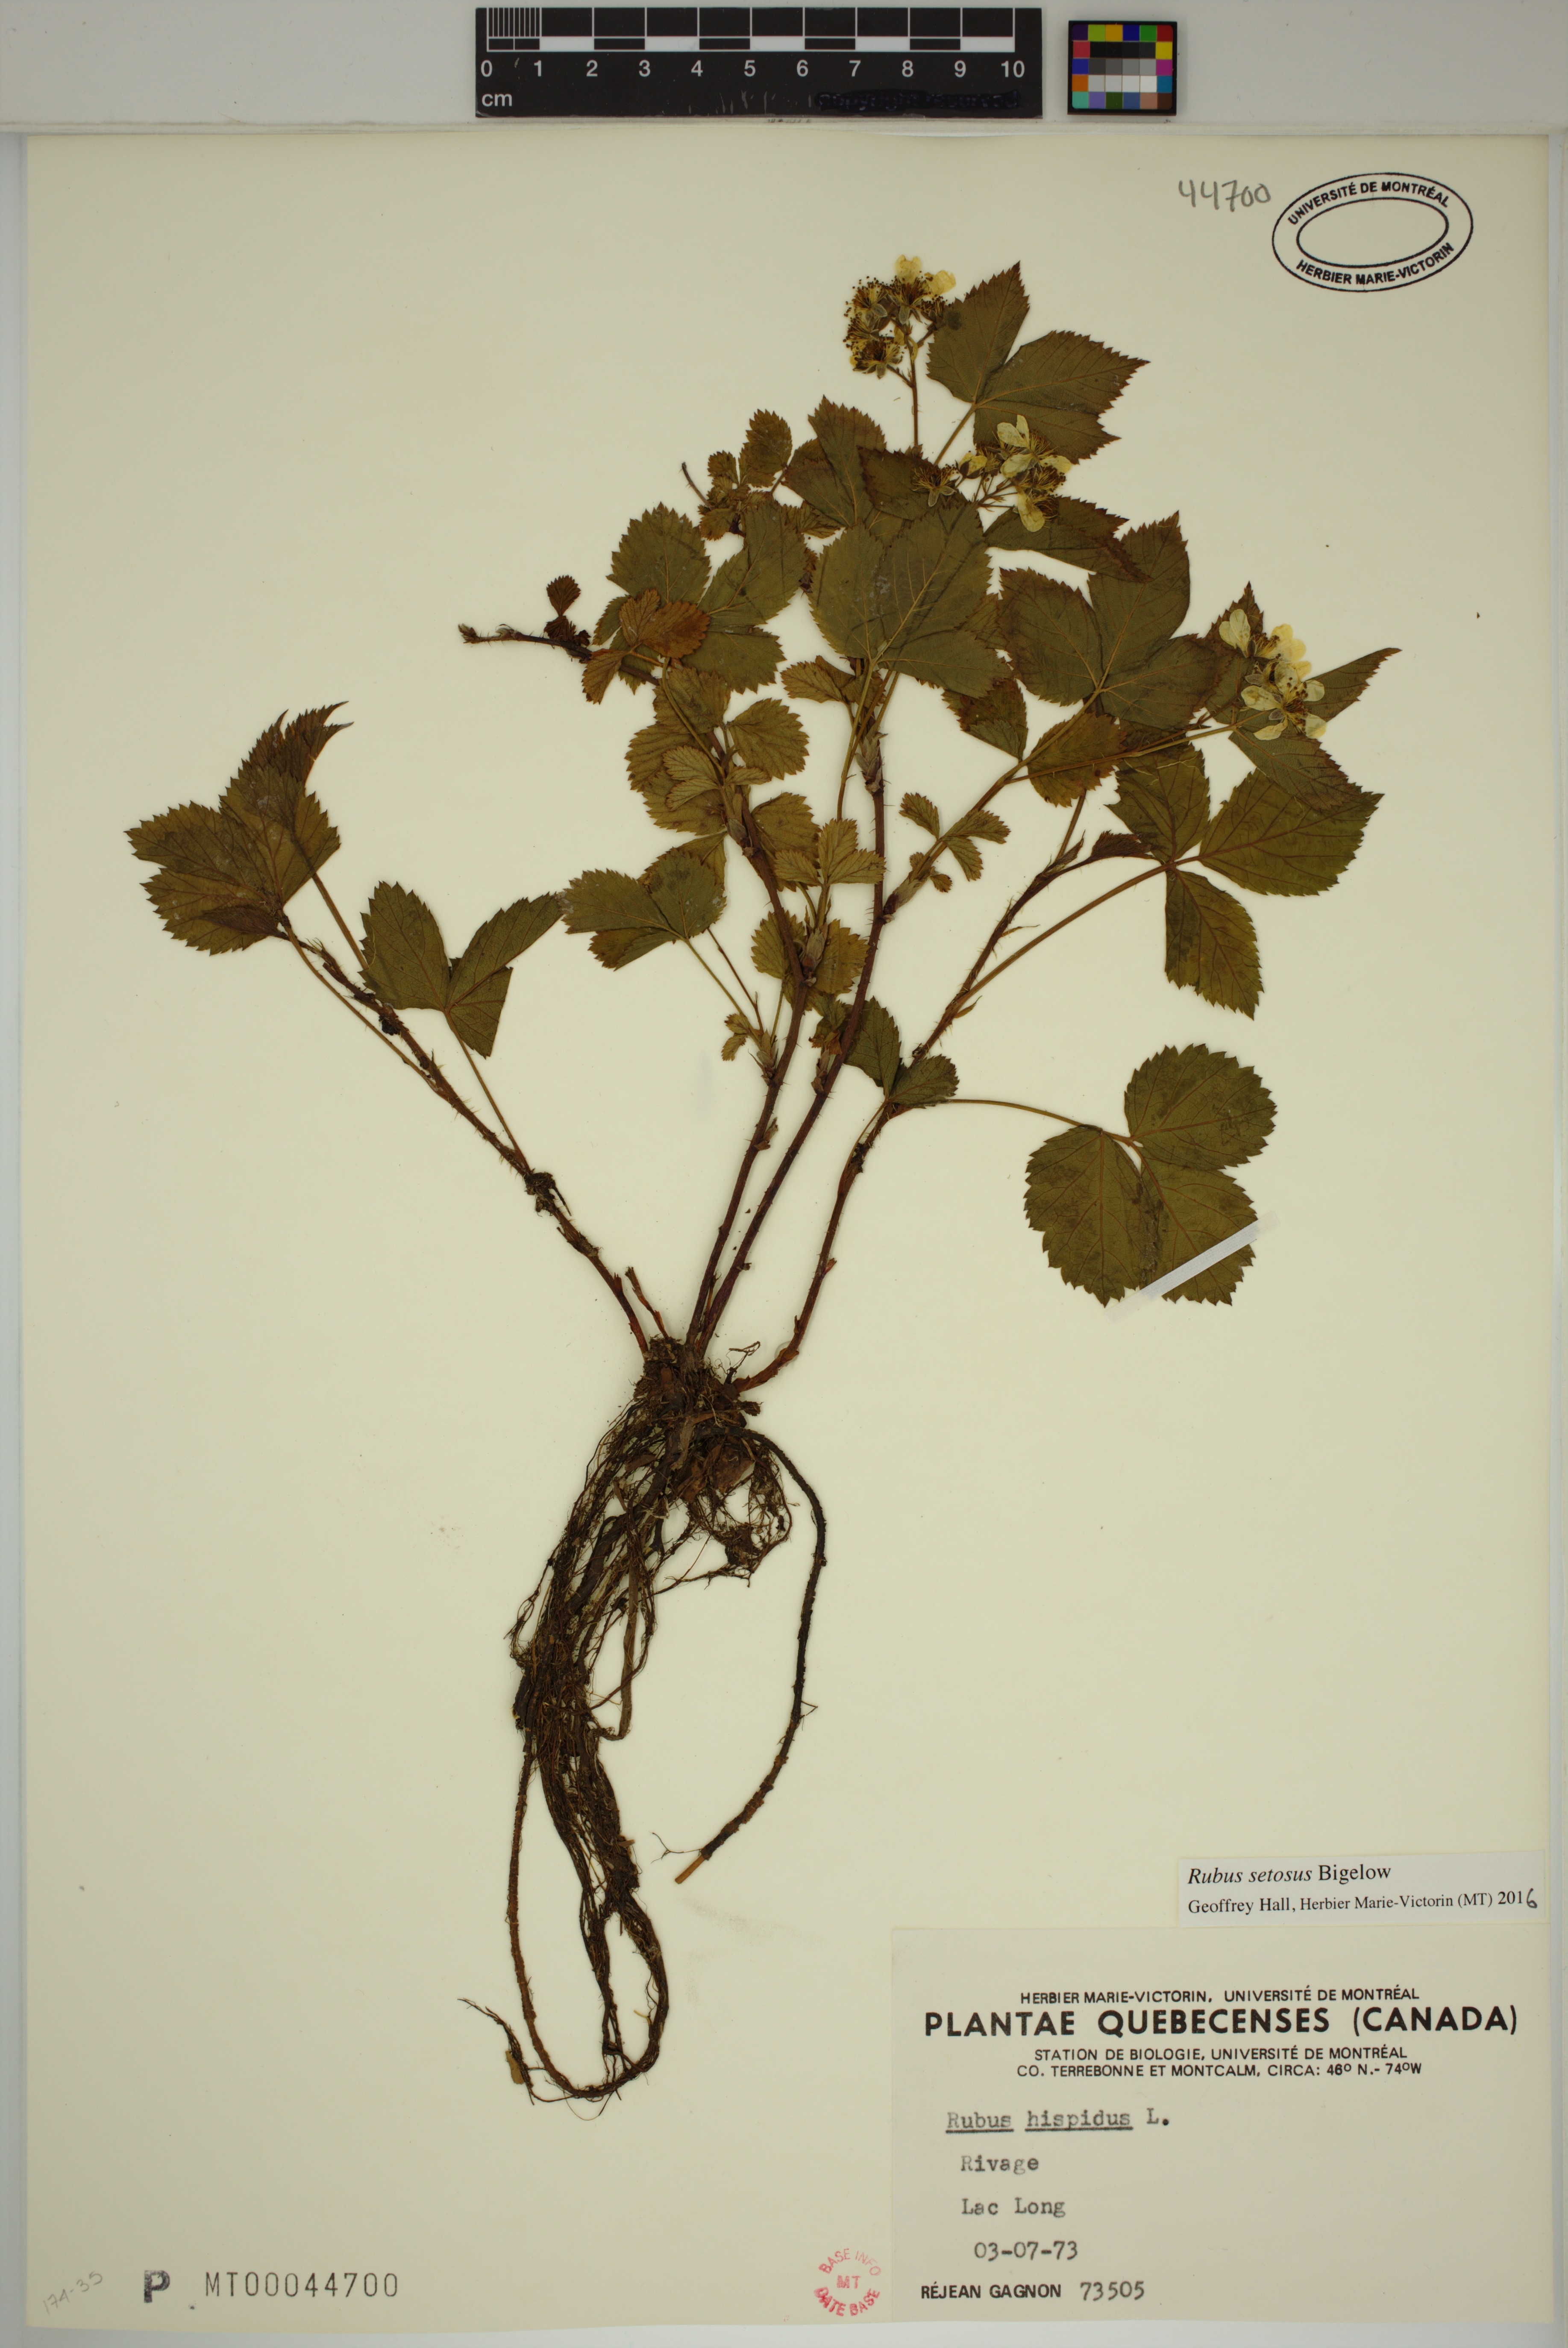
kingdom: Plantae
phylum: Tracheophyta
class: Magnoliopsida
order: Rosales
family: Rosaceae
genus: Rubus
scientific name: Rubus setosus
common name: Bristly blackberry
